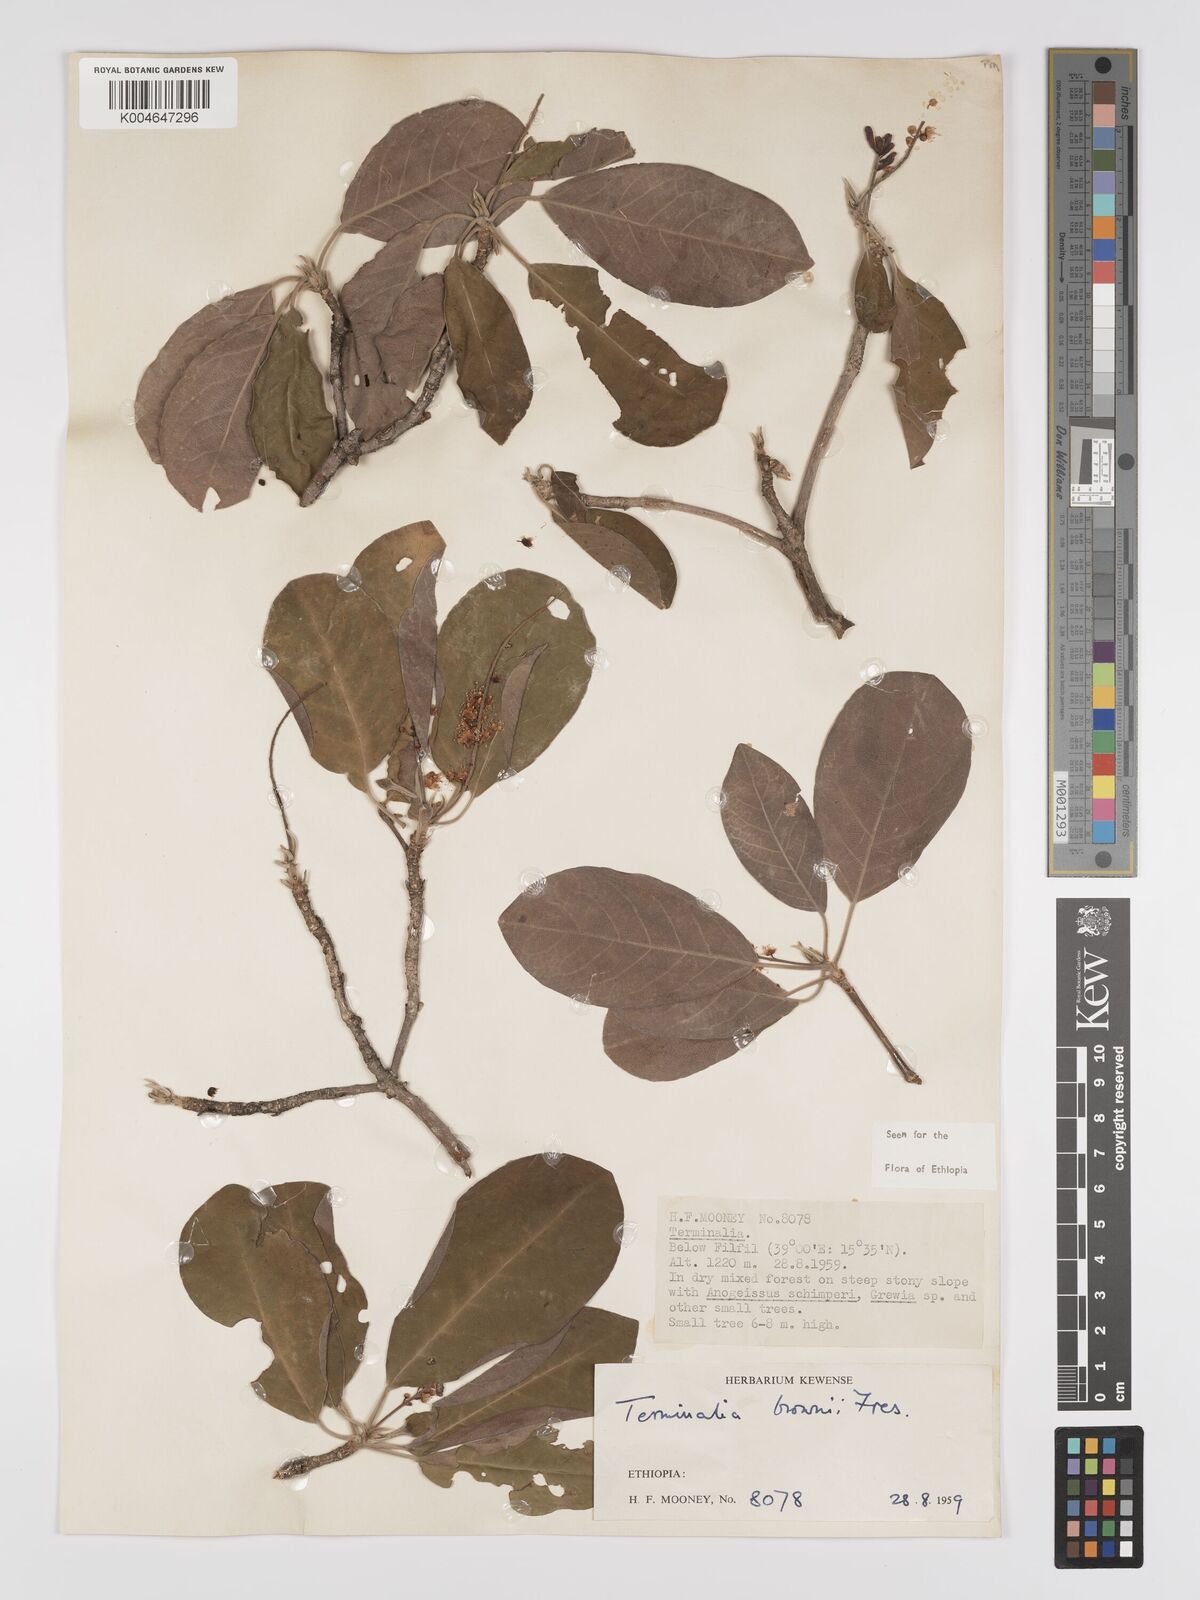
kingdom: Plantae
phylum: Tracheophyta
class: Magnoliopsida
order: Myrtales
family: Combretaceae
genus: Terminalia
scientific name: Terminalia brownii
